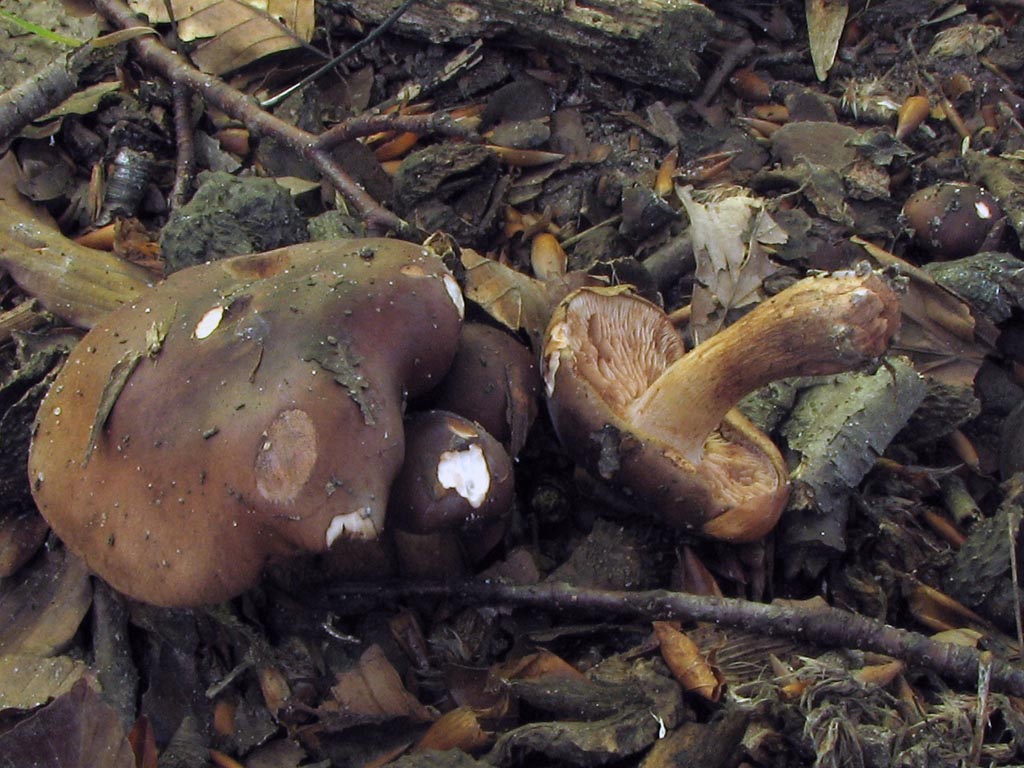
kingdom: Fungi
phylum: Basidiomycota
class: Agaricomycetes
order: Agaricales
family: Tricholomataceae
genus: Tricholoma
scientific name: Tricholoma ustale
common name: sveden ridderhat
